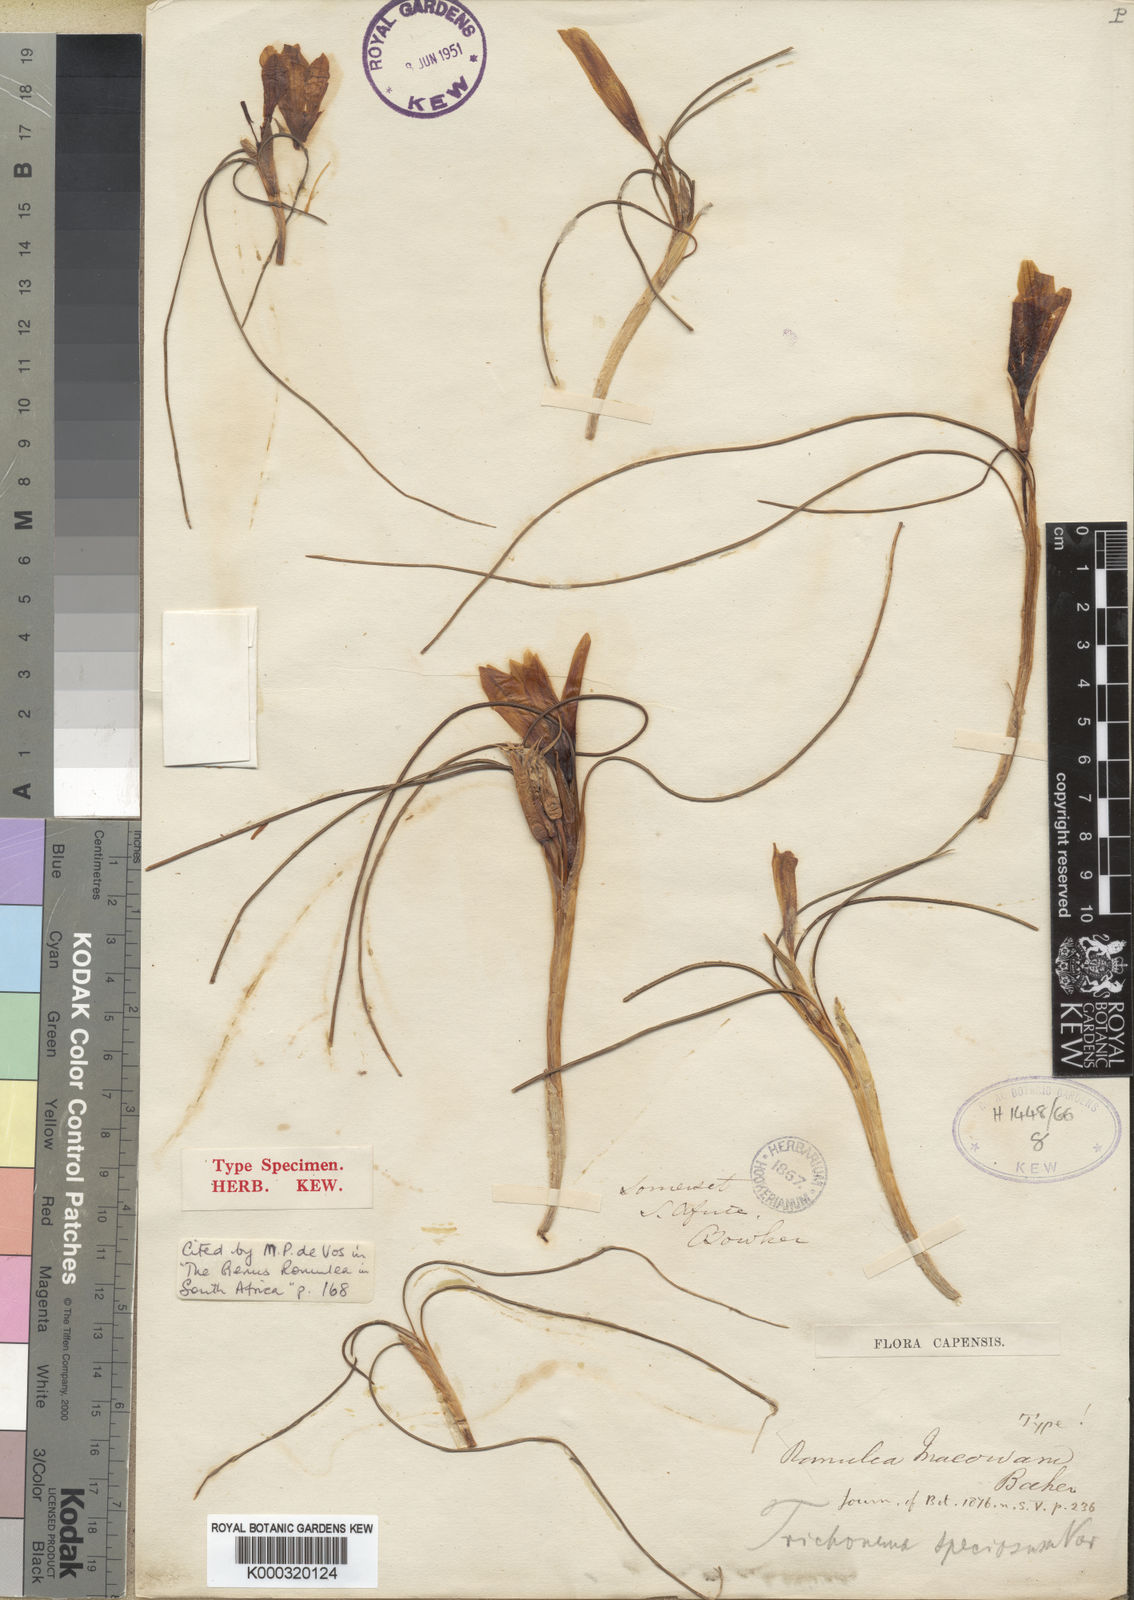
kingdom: Plantae
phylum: Tracheophyta
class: Liliopsida
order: Asparagales
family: Iridaceae
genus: Romulea
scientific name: Romulea macowanii
